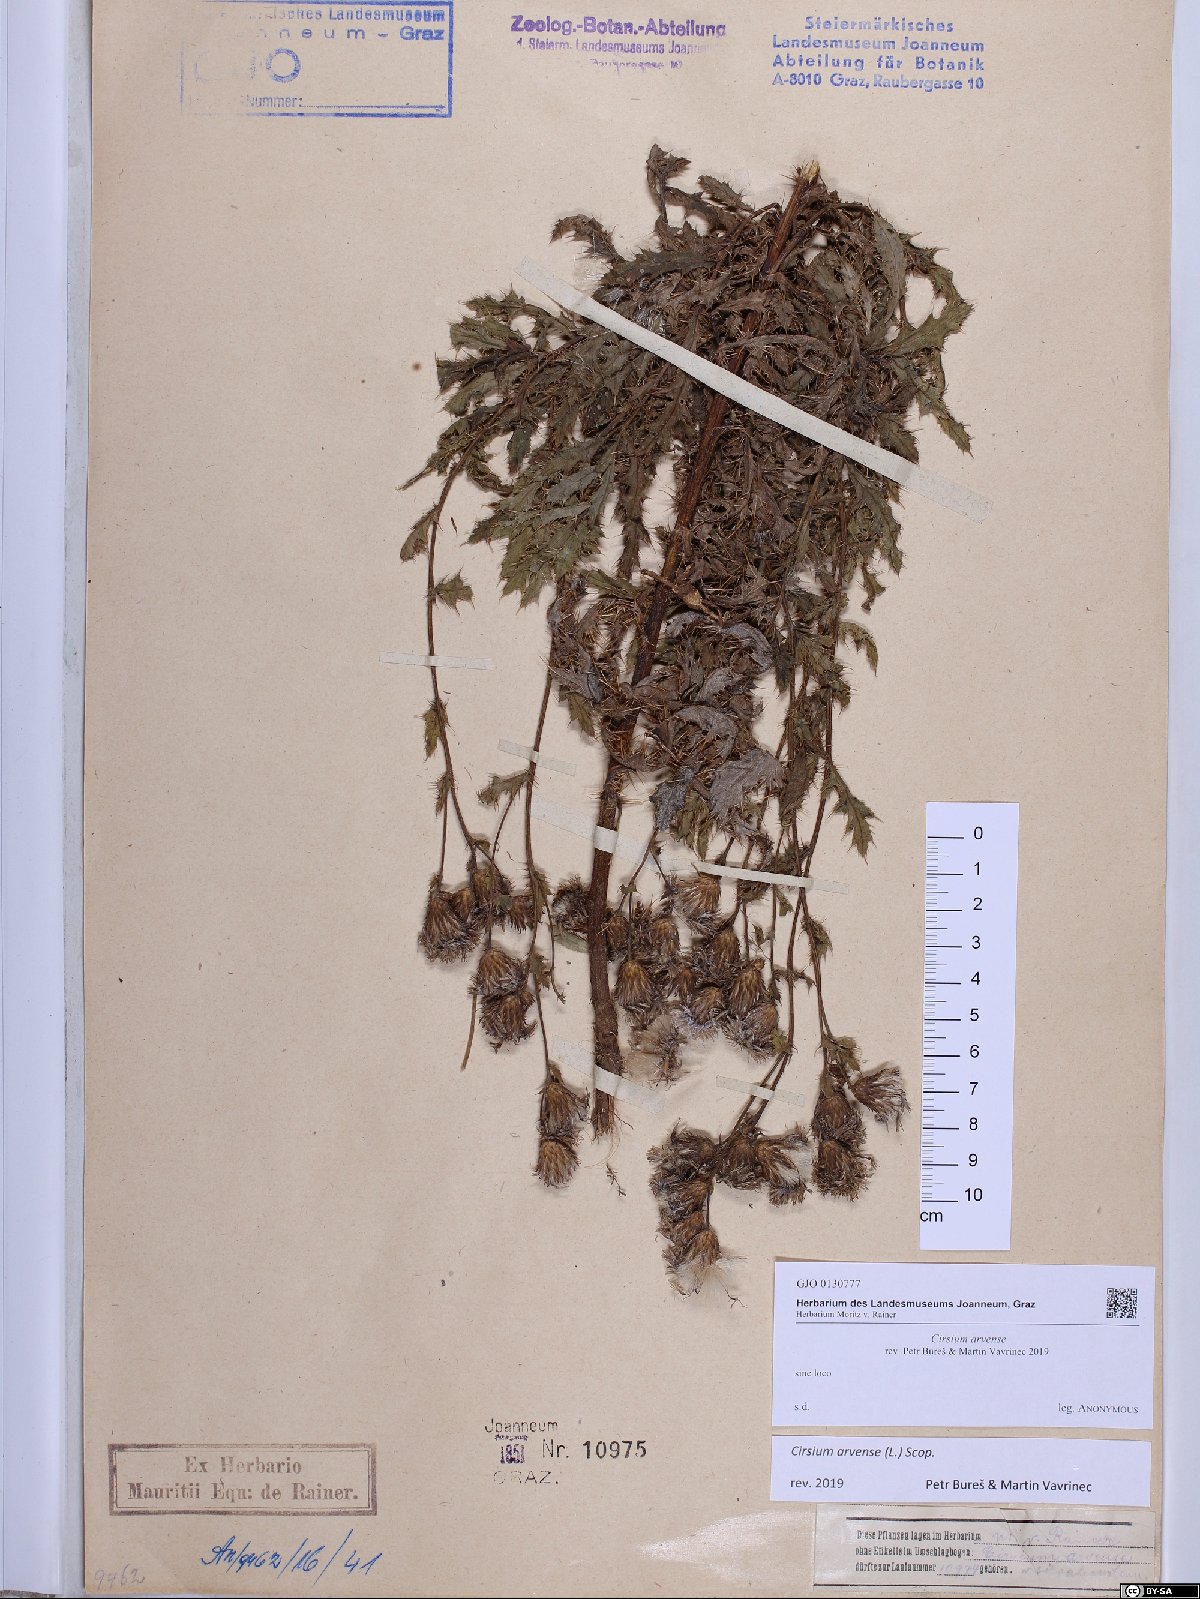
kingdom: Plantae
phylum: Tracheophyta
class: Magnoliopsida
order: Asterales
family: Asteraceae
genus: Cirsium
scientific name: Cirsium arvense
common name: Creeping thistle
